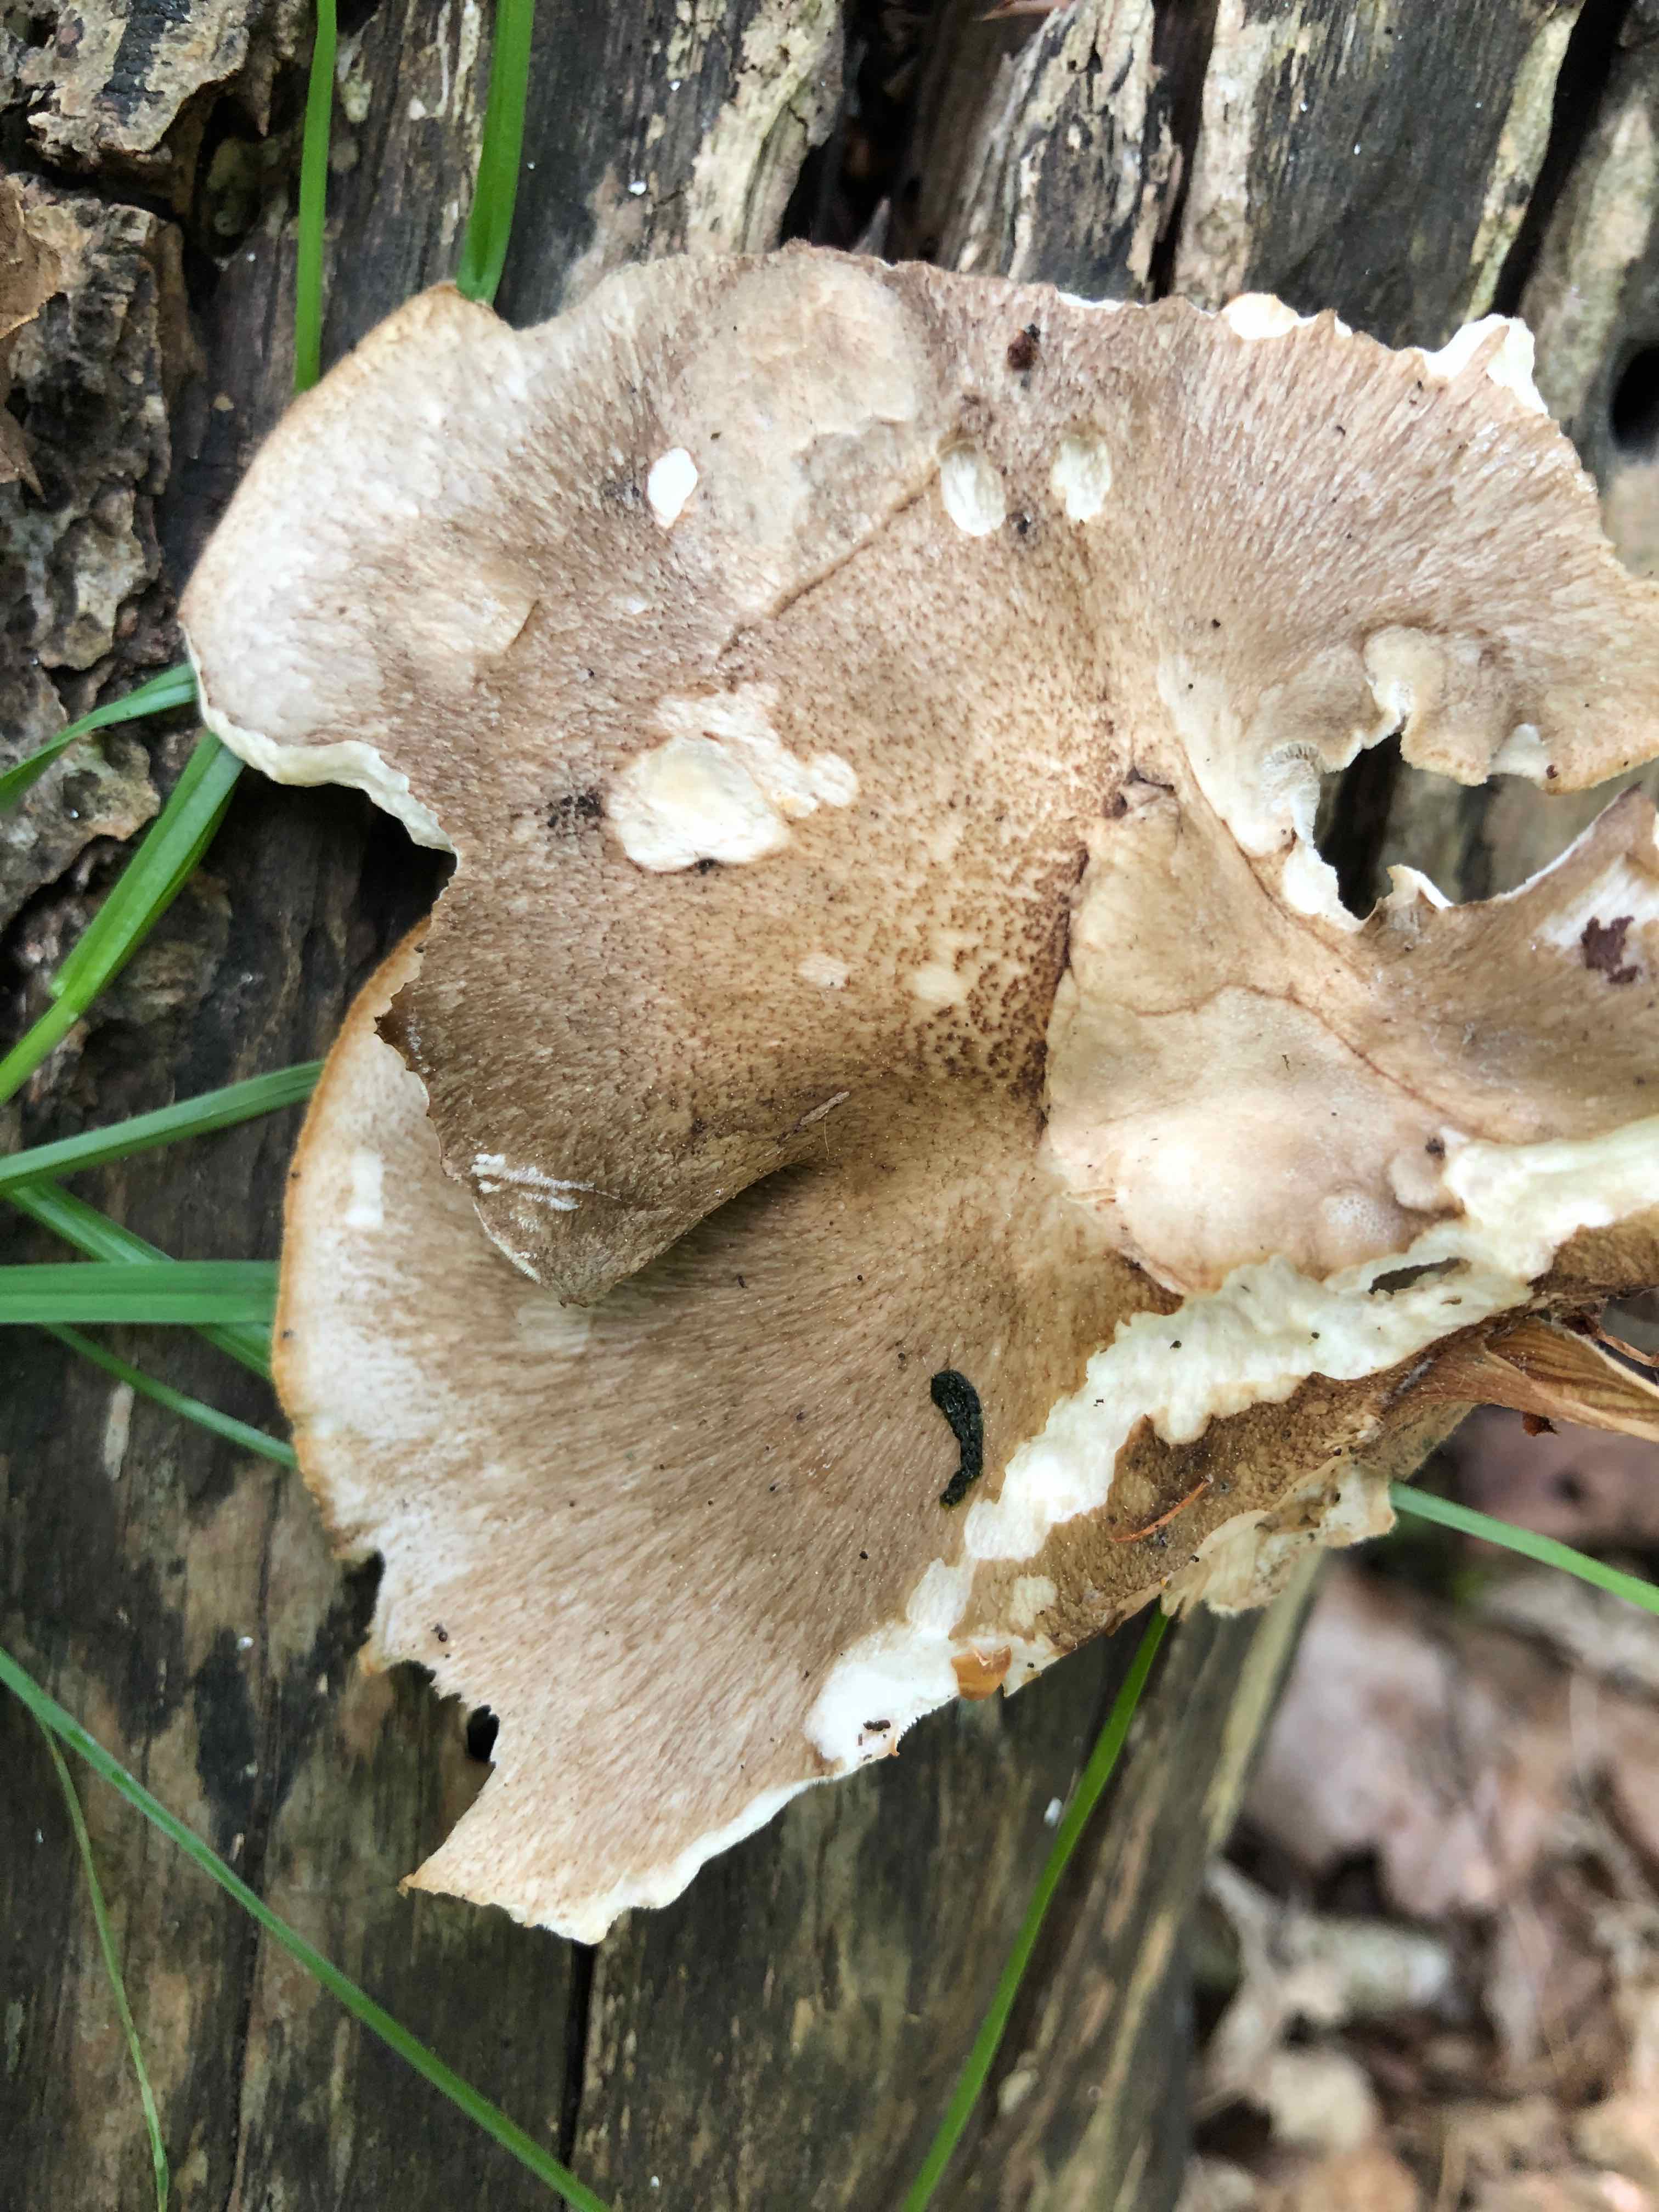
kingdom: Fungi
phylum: Basidiomycota
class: Agaricomycetes
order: Polyporales
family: Polyporaceae
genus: Lentinus
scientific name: Lentinus substrictus
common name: forårs-stilkporesvamp
